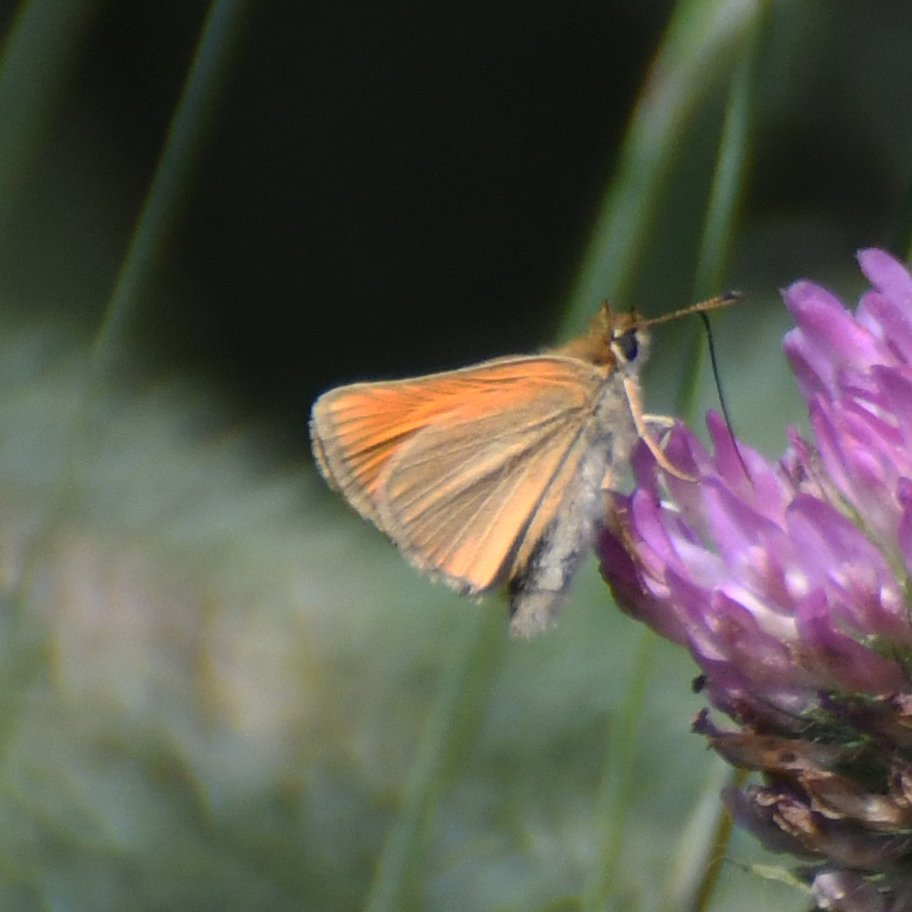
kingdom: Animalia
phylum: Arthropoda
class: Insecta
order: Lepidoptera
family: Hesperiidae
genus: Thymelicus
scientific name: Thymelicus lineola
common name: European Skipper
